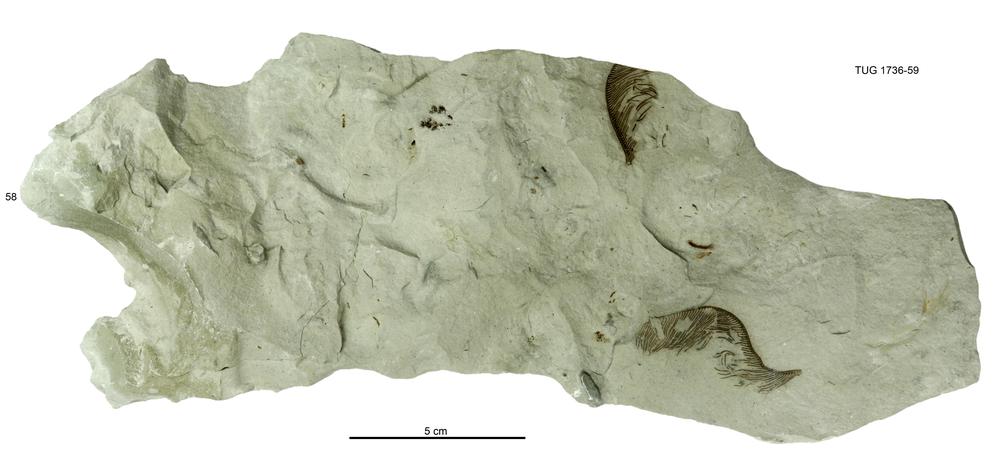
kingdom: Animalia
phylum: Echinodermata
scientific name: Echinodermata
